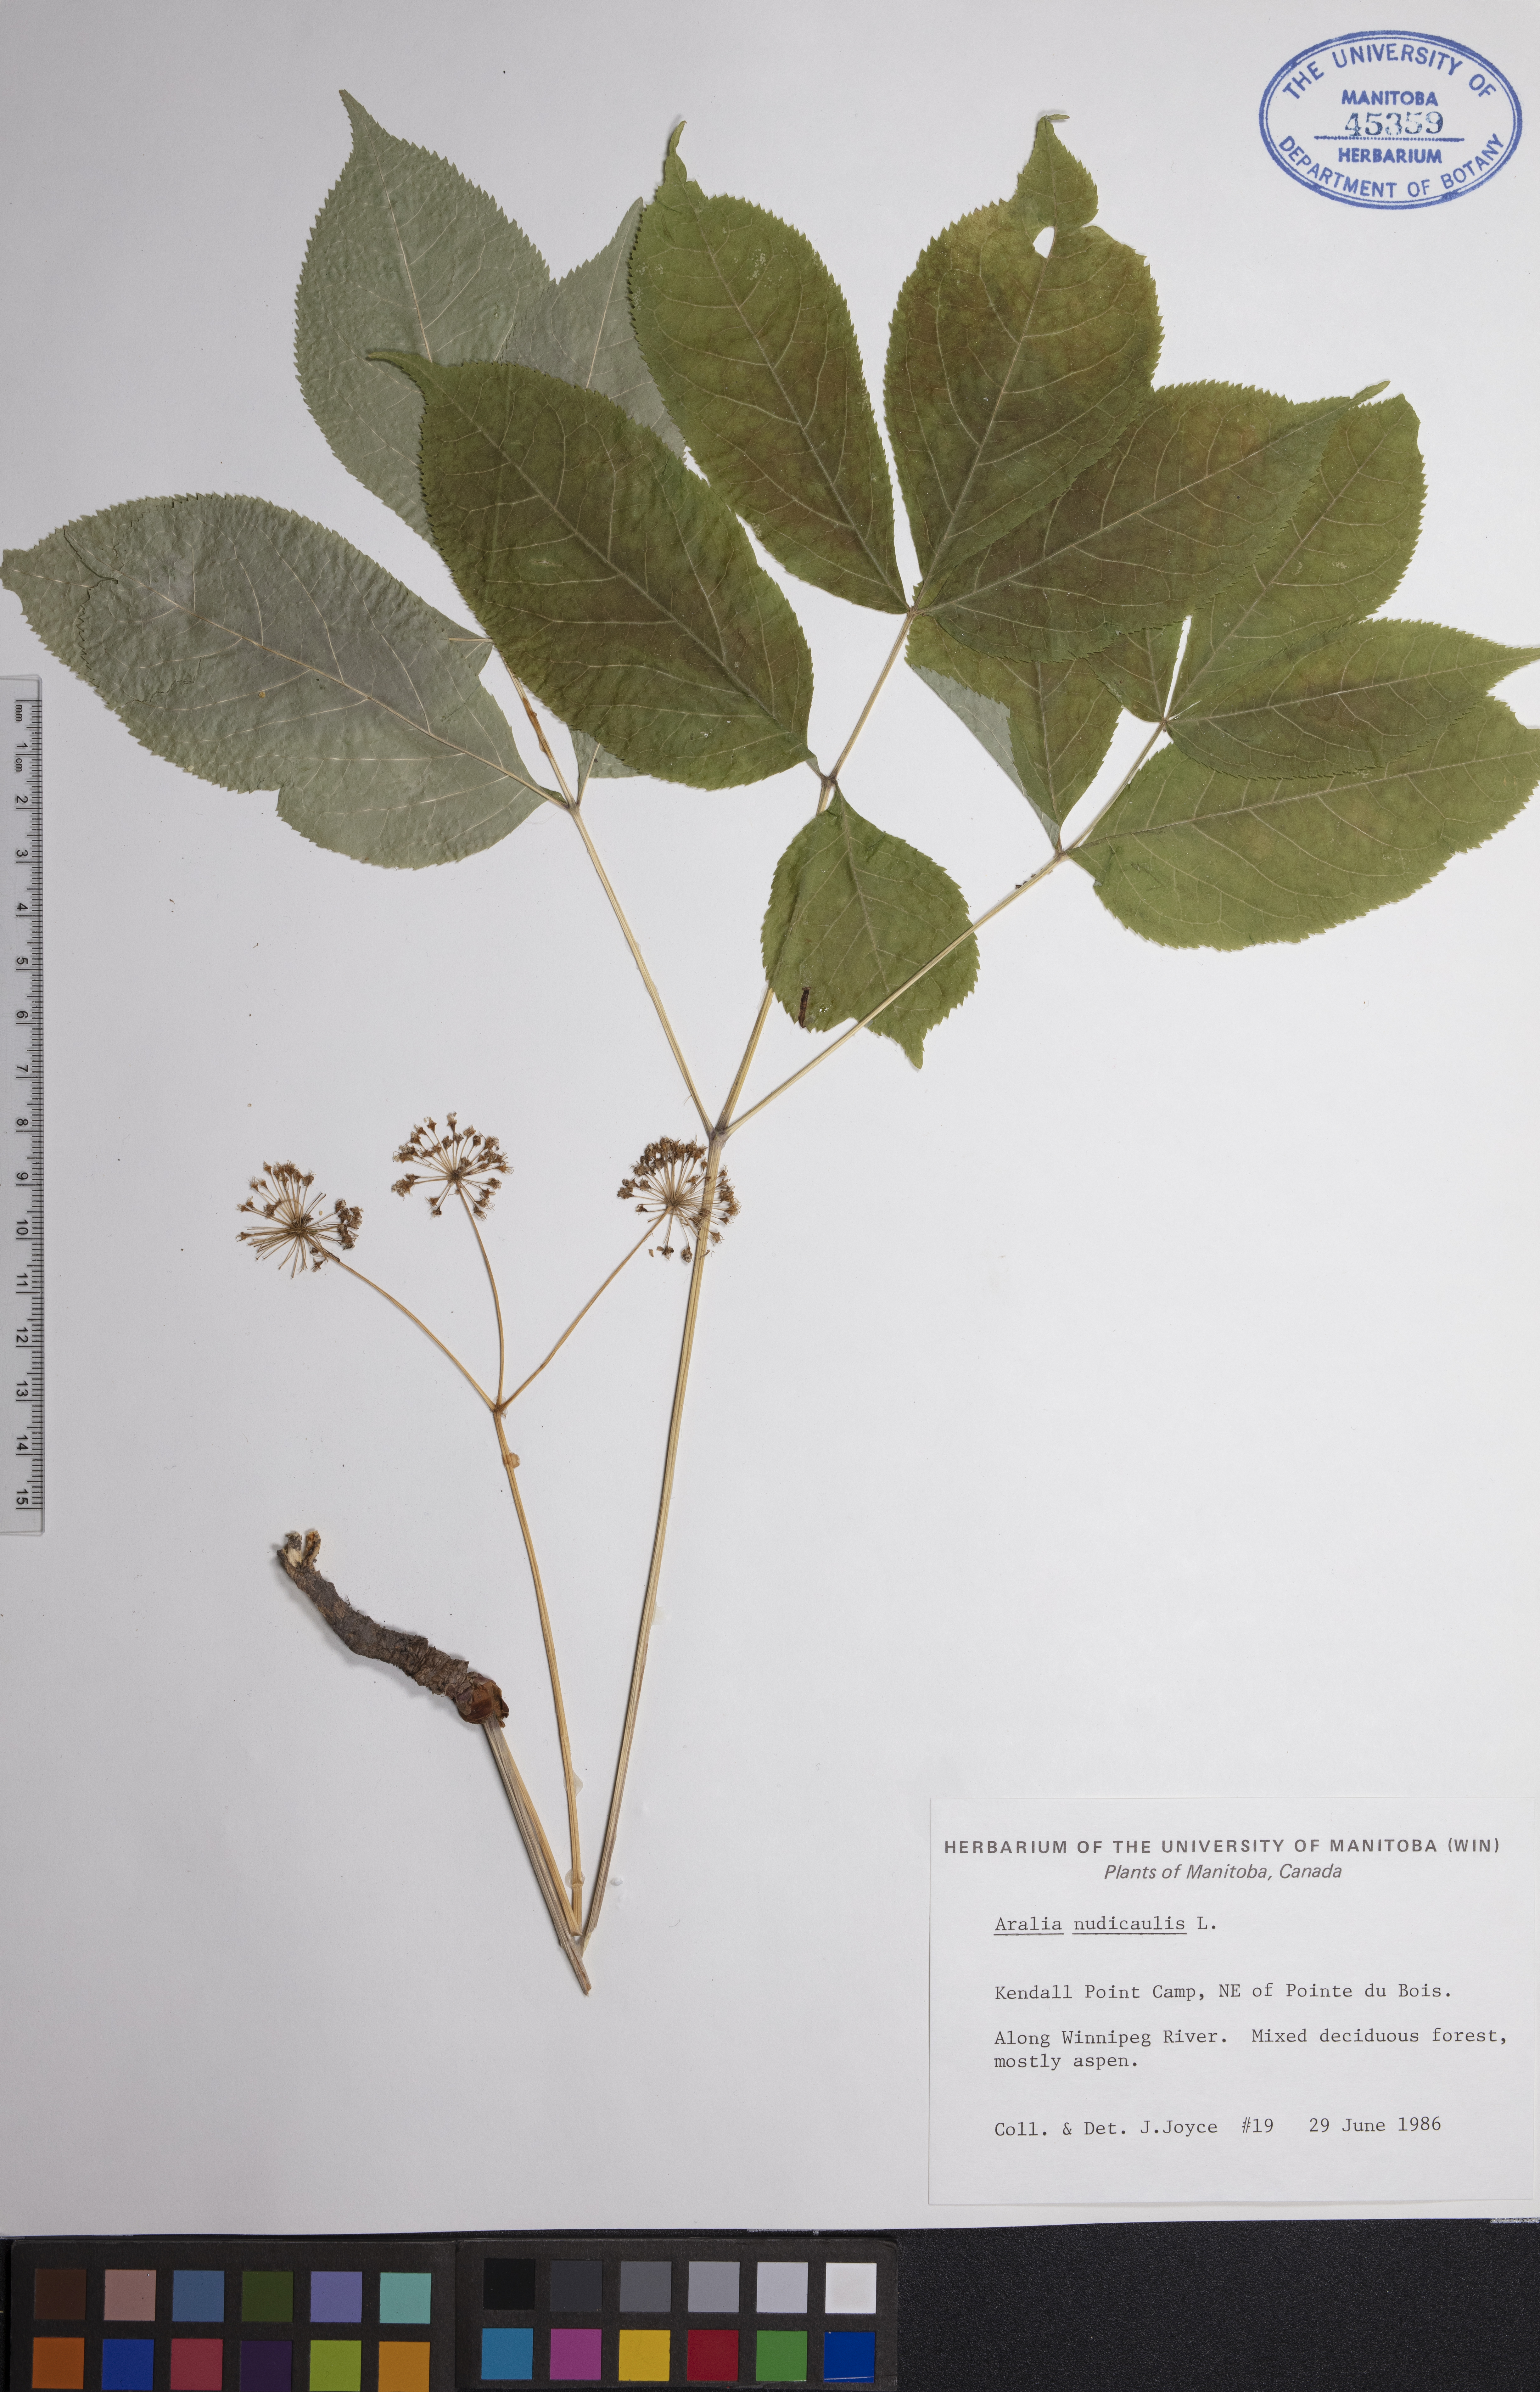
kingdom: Plantae
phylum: Tracheophyta
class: Magnoliopsida
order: Apiales
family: Araliaceae
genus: Aralia
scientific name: Aralia nudicaulis
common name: Wild sarsaparilla
